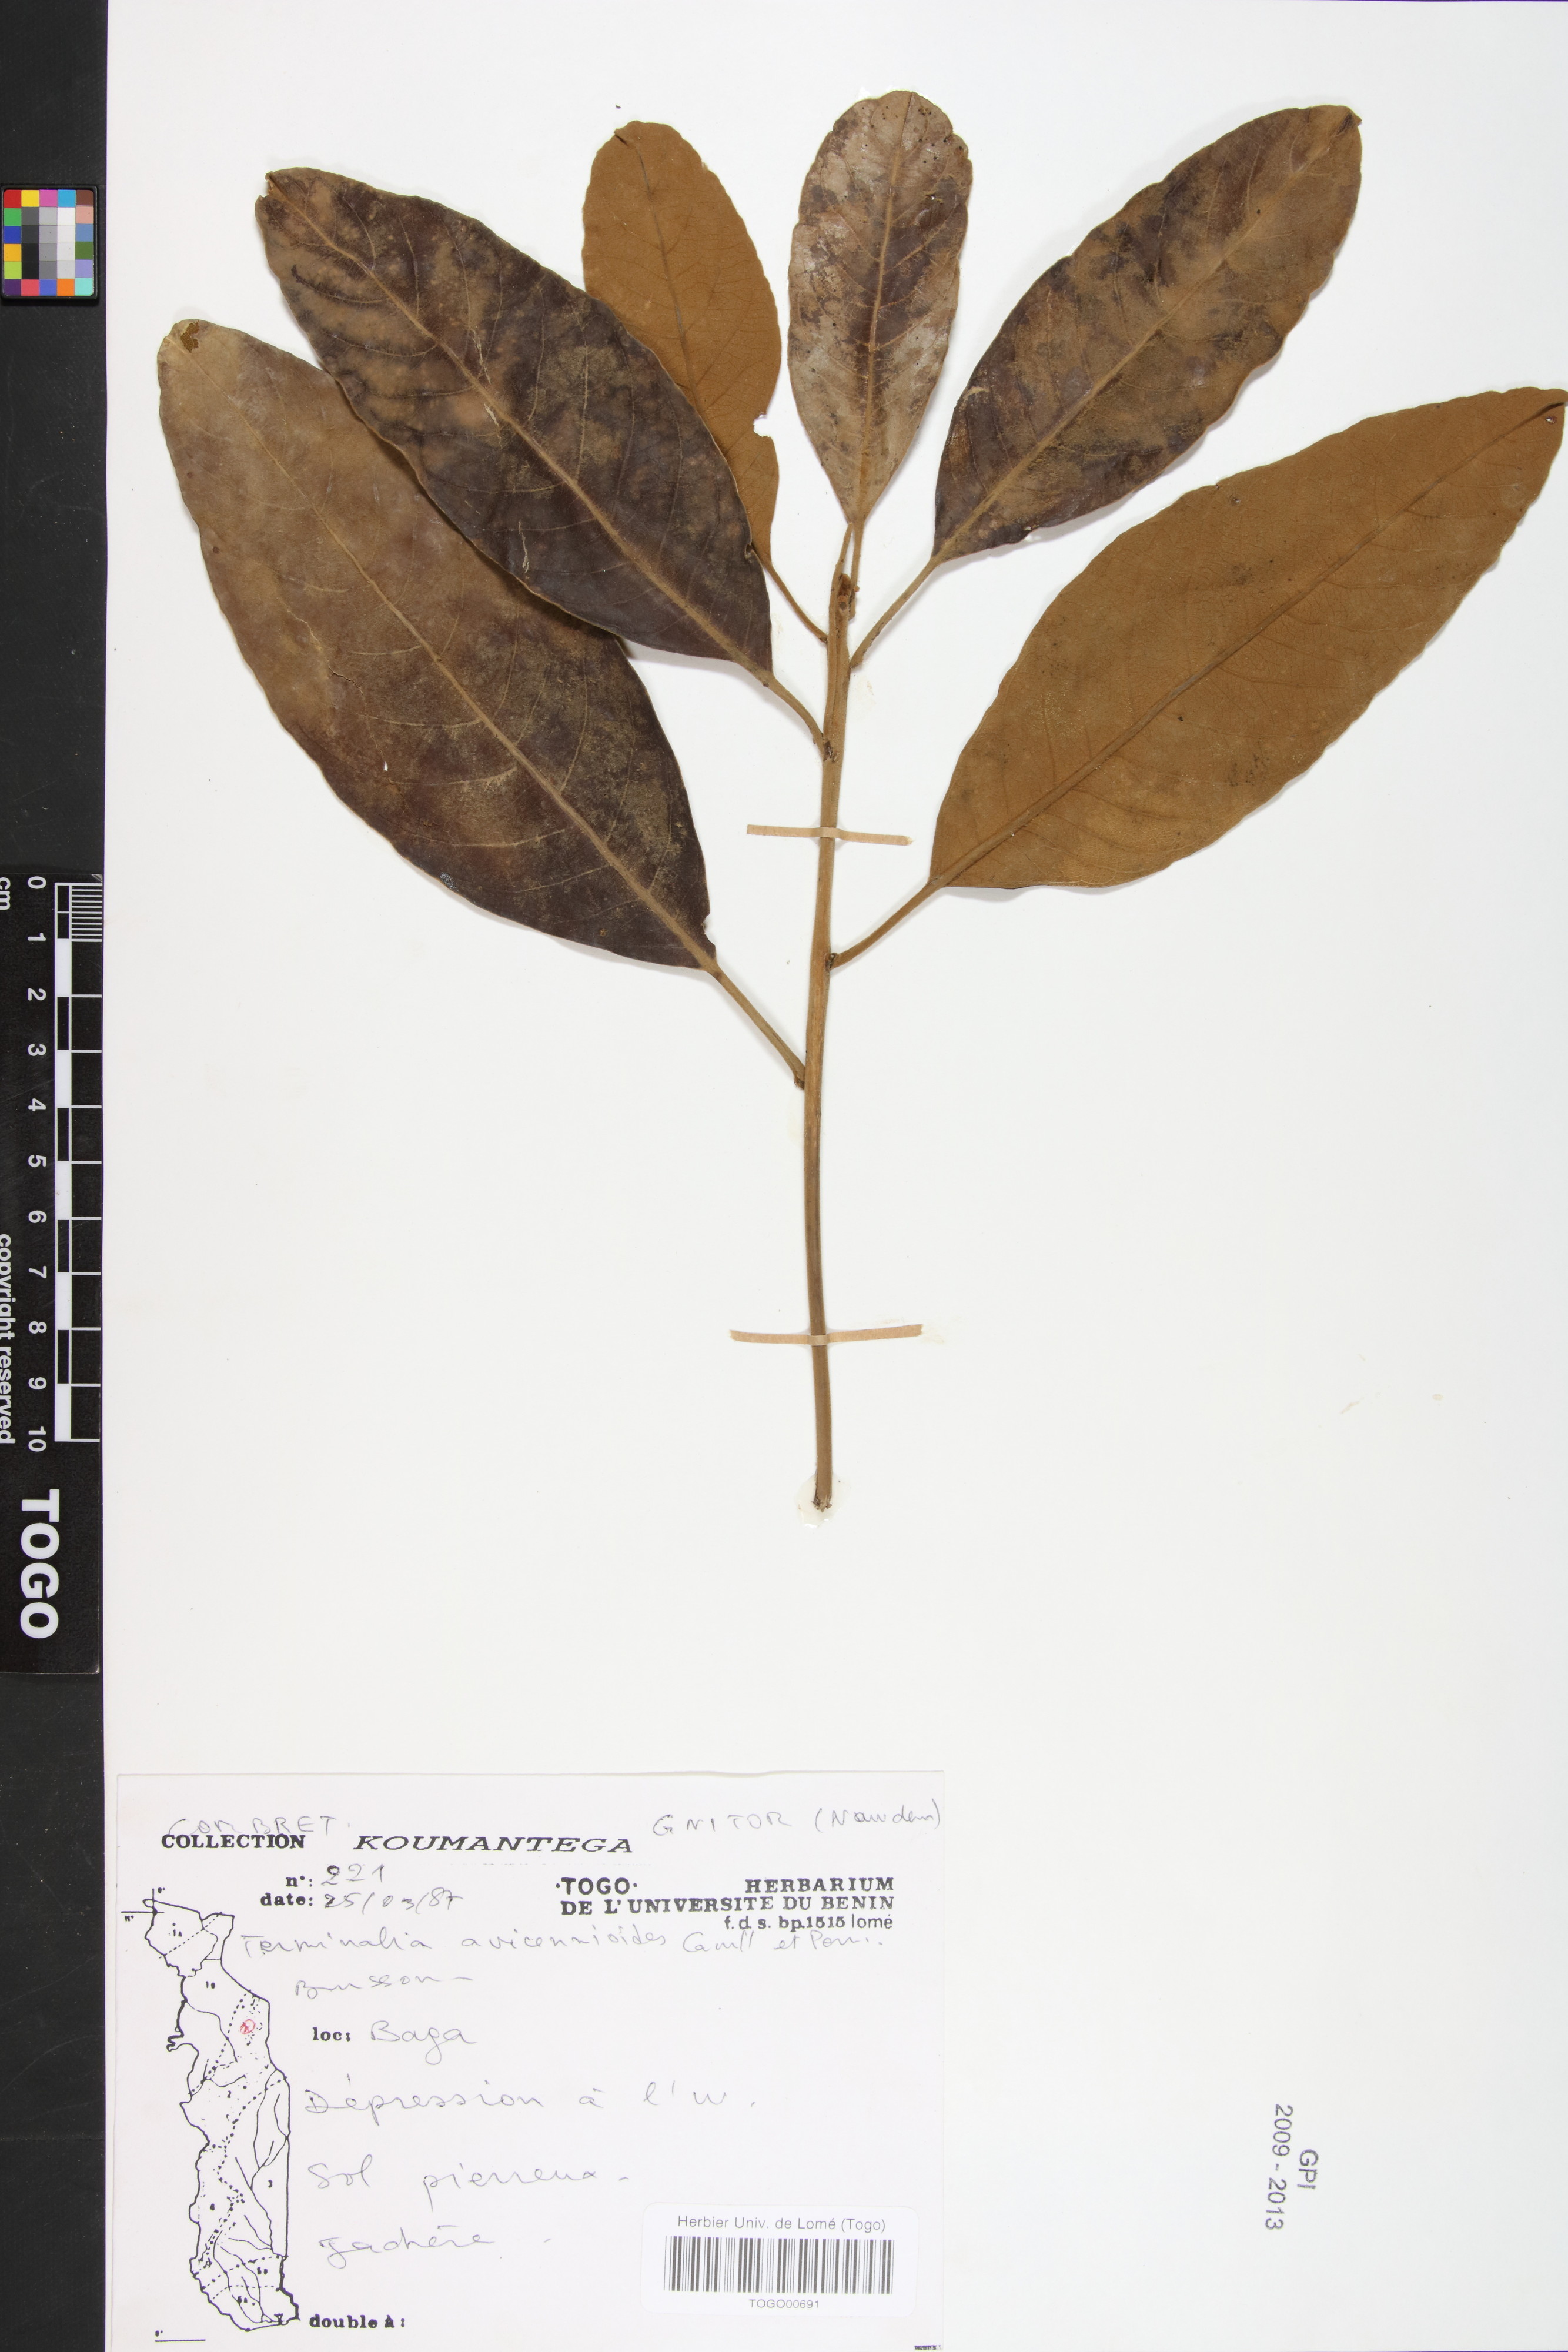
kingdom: Plantae
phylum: Tracheophyta
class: Magnoliopsida
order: Myrtales
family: Combretaceae
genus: Terminalia
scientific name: Terminalia avicennioides
